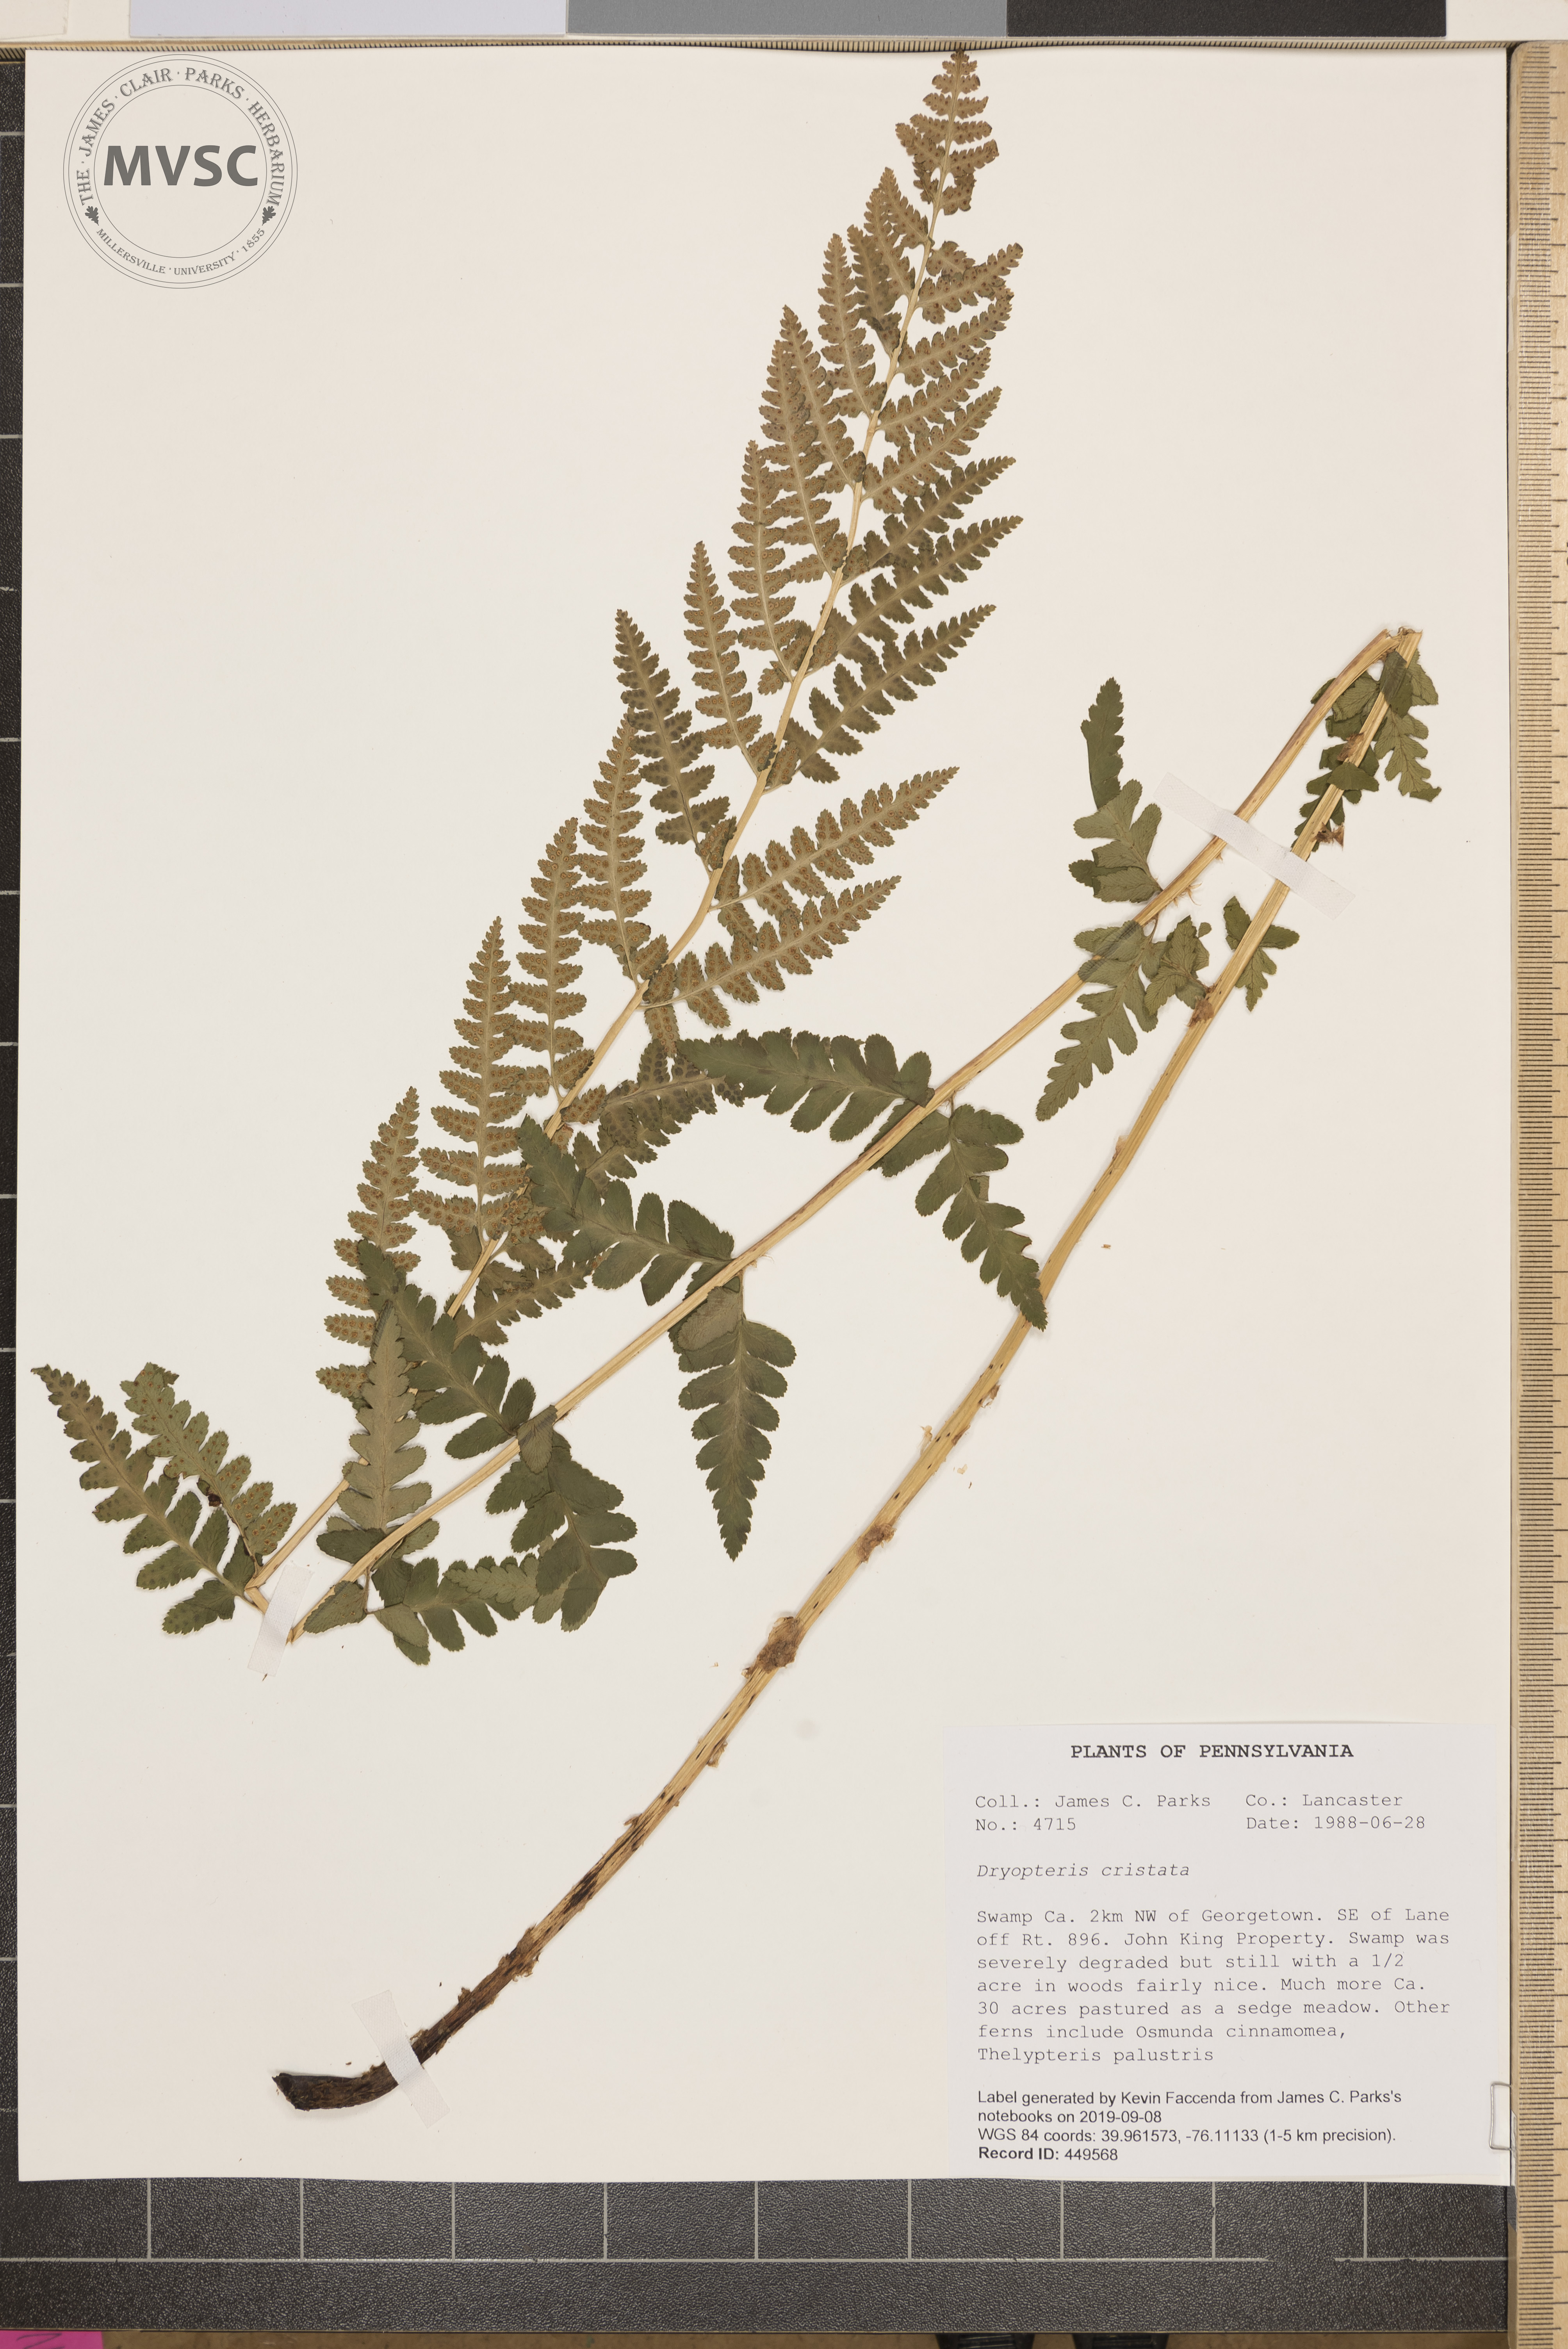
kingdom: Plantae
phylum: Tracheophyta
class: Polypodiopsida
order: Polypodiales
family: Dryopteridaceae
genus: Dryopteris
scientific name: Dryopteris cristata
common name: Crested wood fern
